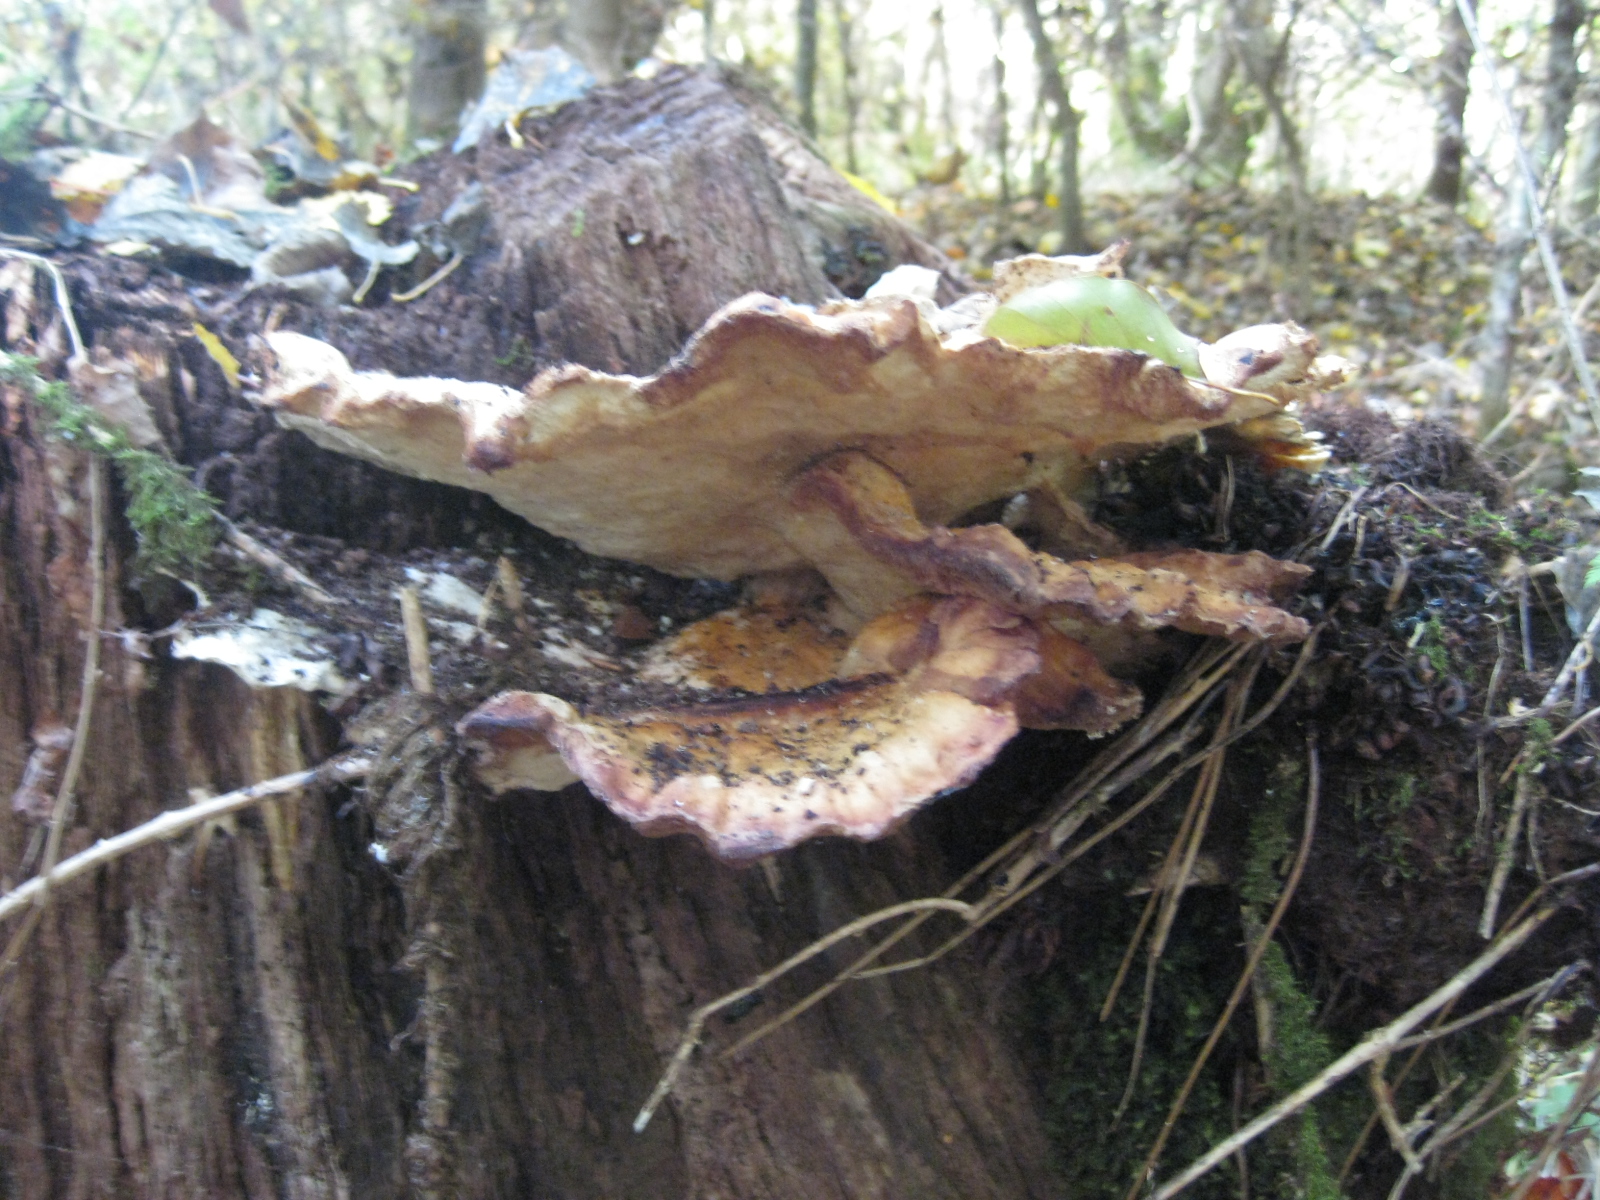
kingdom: Fungi
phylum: Basidiomycota
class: Agaricomycetes
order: Polyporales
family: Laetiporaceae
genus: Laetiporus
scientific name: Laetiporus
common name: svovlporesvamp
